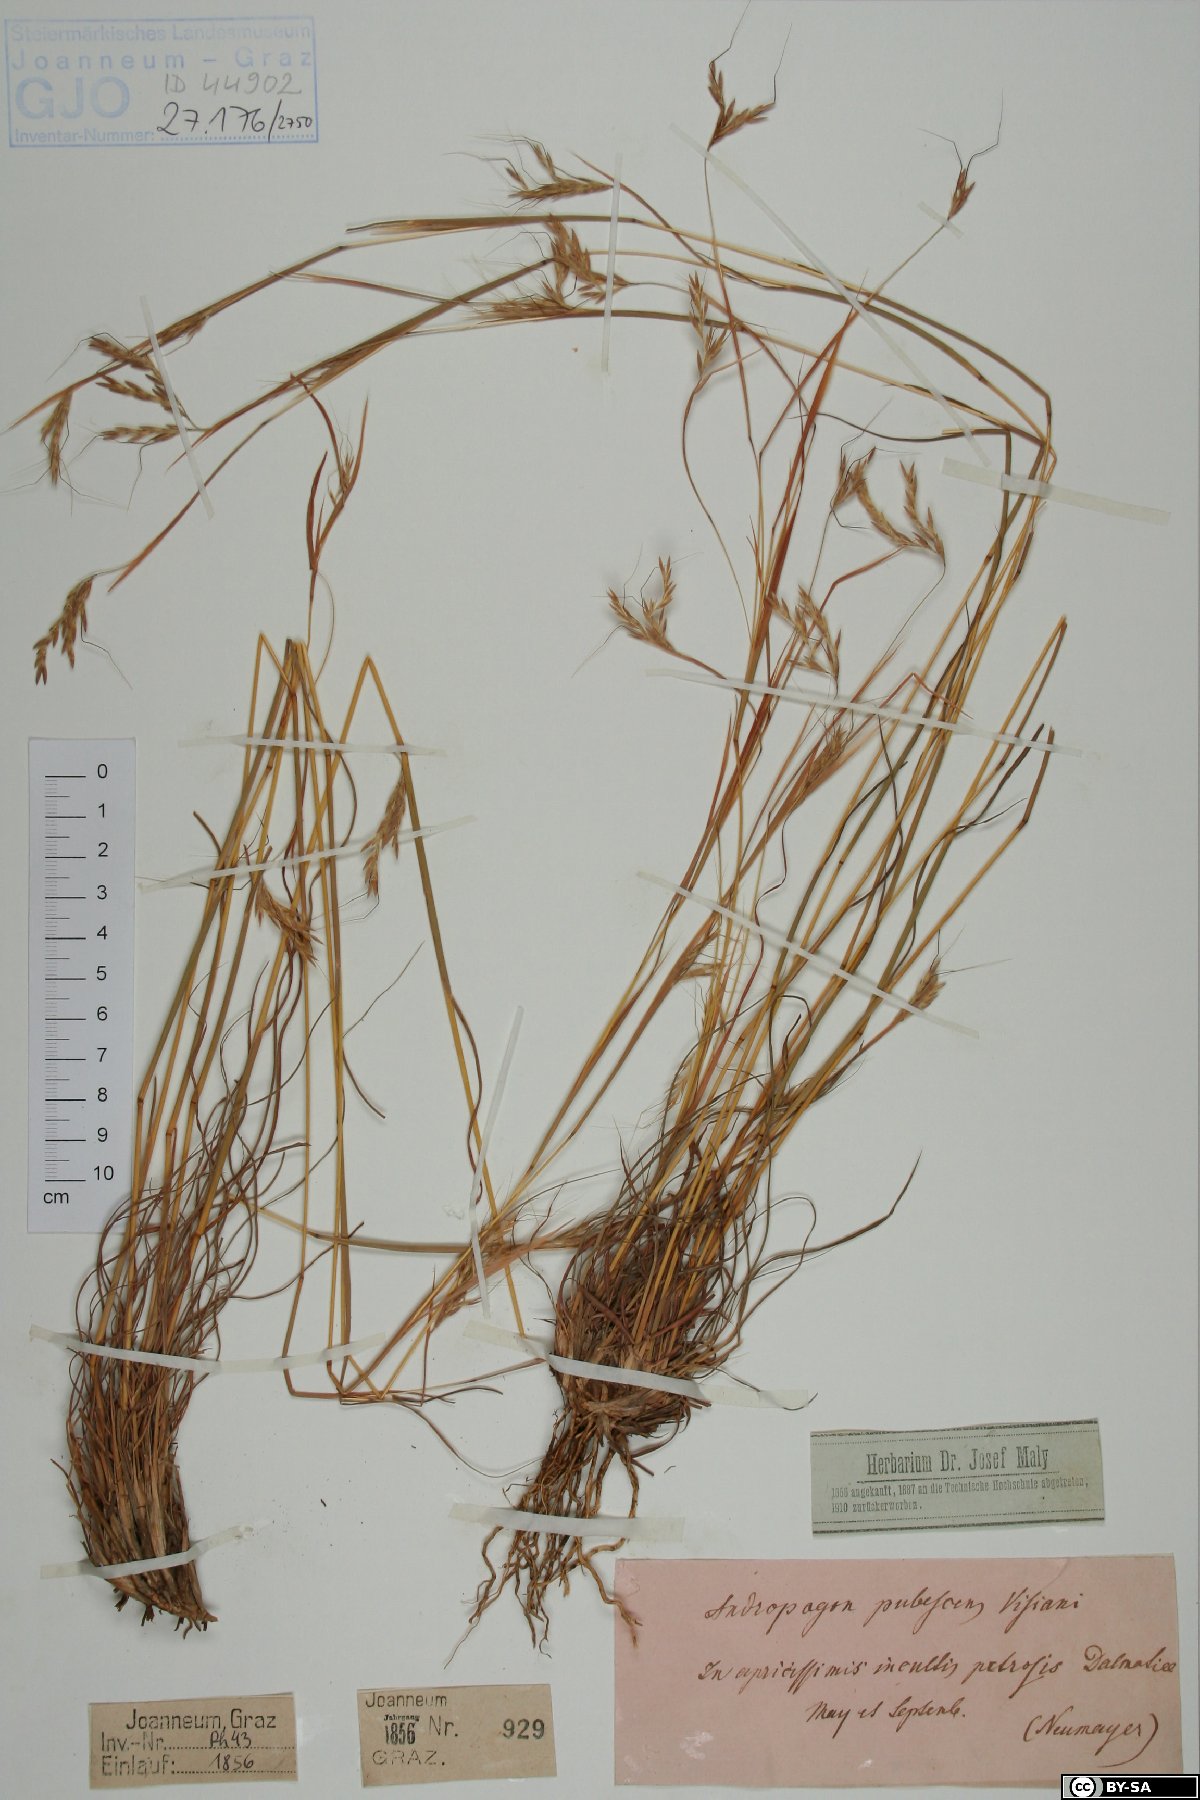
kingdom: Plantae
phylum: Tracheophyta
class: Liliopsida
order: Poales
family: Poaceae
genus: Hyparrhenia
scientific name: Hyparrhenia hirta
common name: Thatching grass
